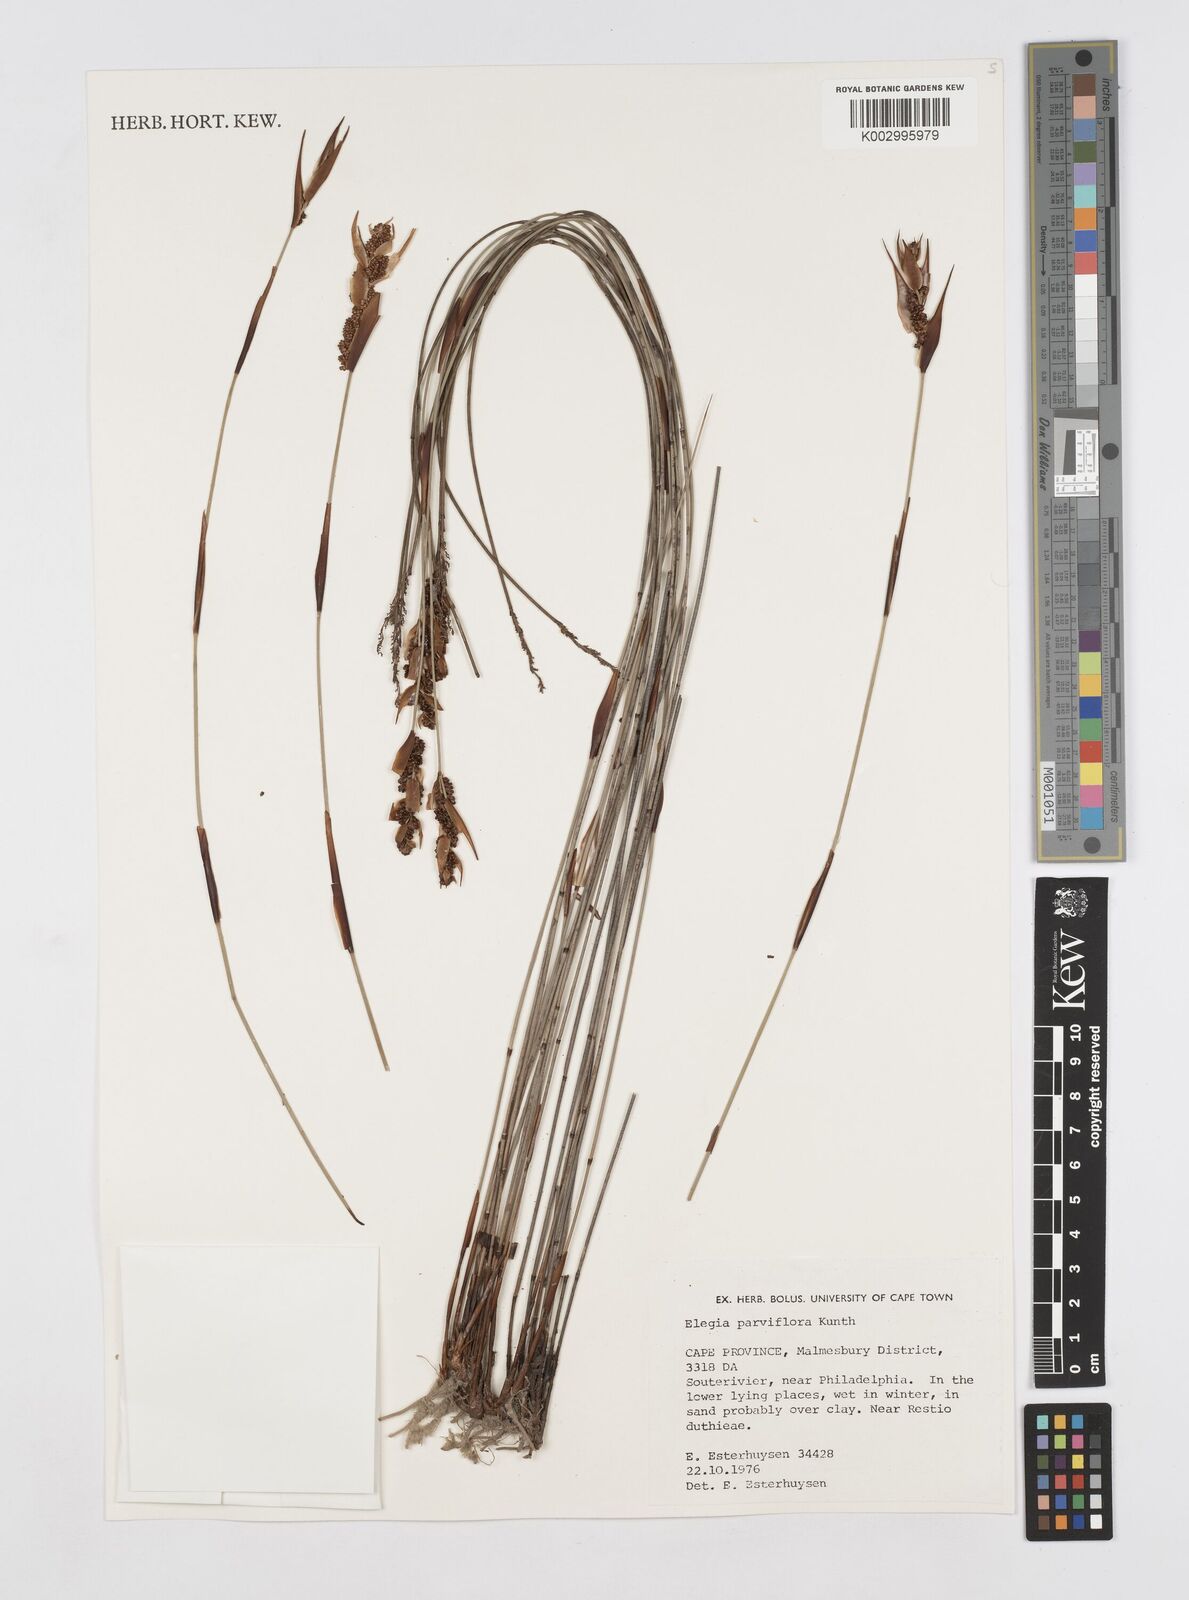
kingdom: Plantae
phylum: Tracheophyta
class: Liliopsida
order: Poales
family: Restionaceae
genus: Cannomois
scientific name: Cannomois parviflora
